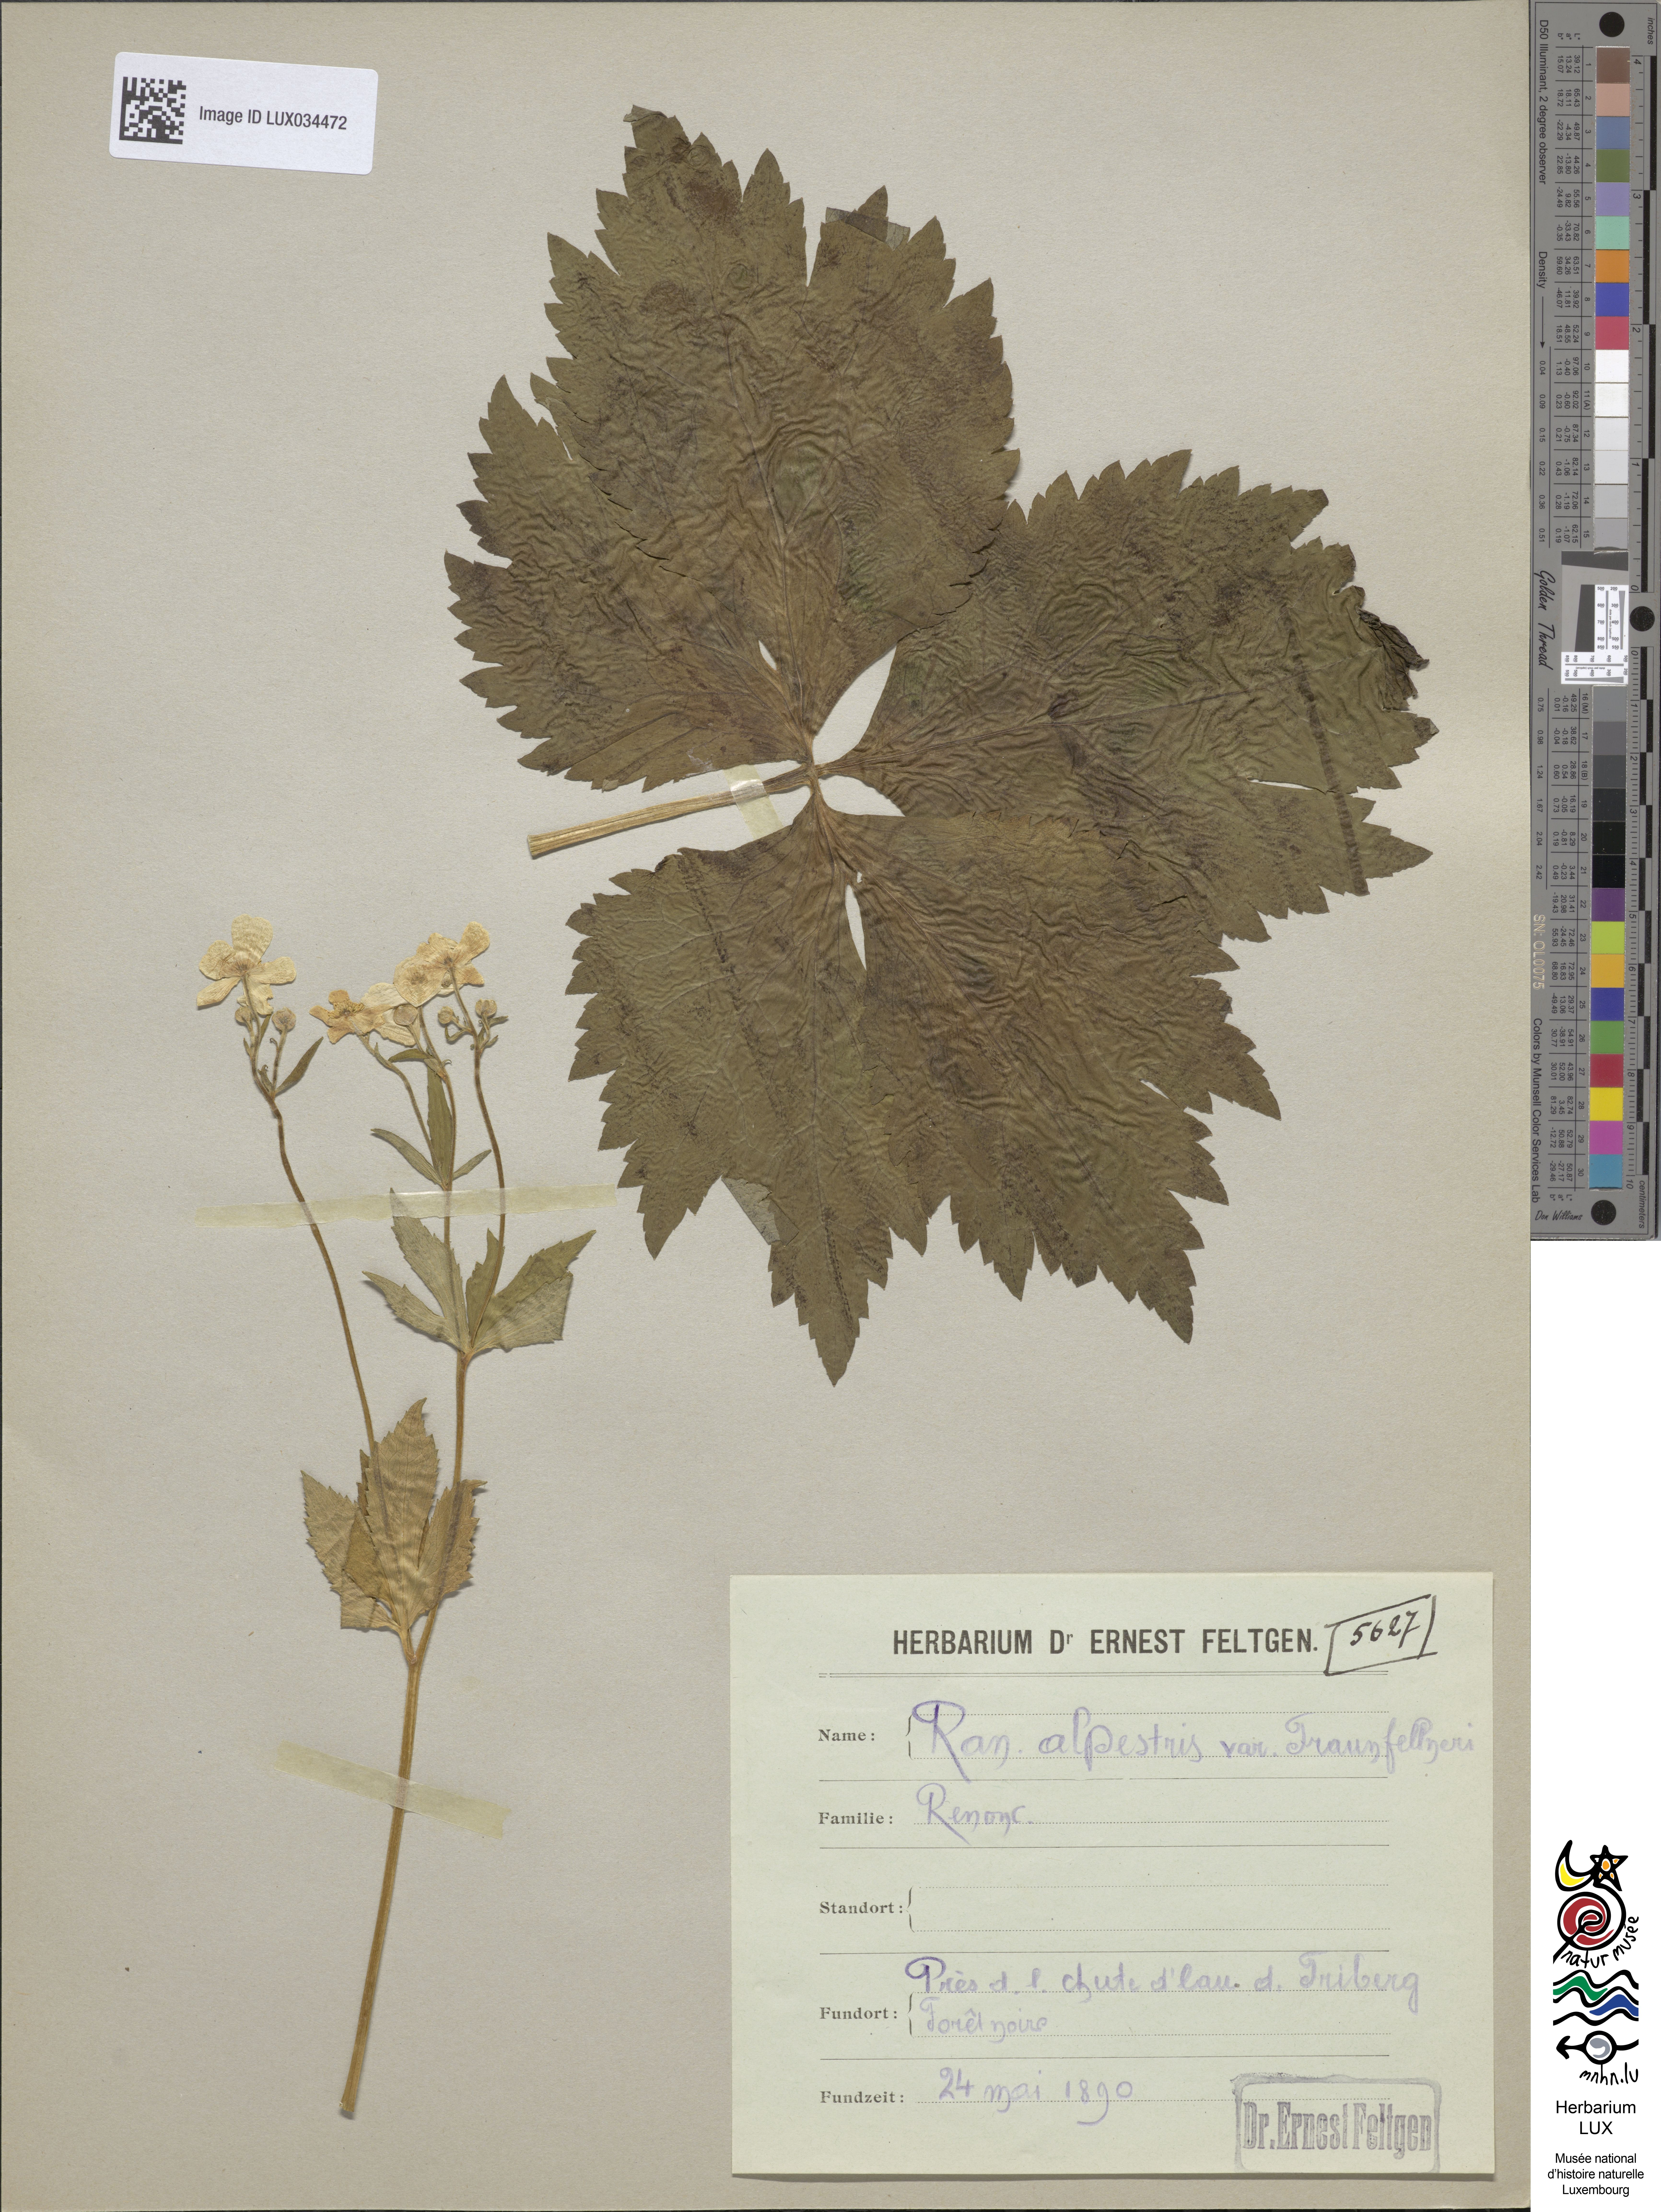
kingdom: Plantae
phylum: Tracheophyta
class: Magnoliopsida
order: Ranunculales
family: Ranunculaceae
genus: Ranunculus
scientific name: Ranunculus traunfellneri
